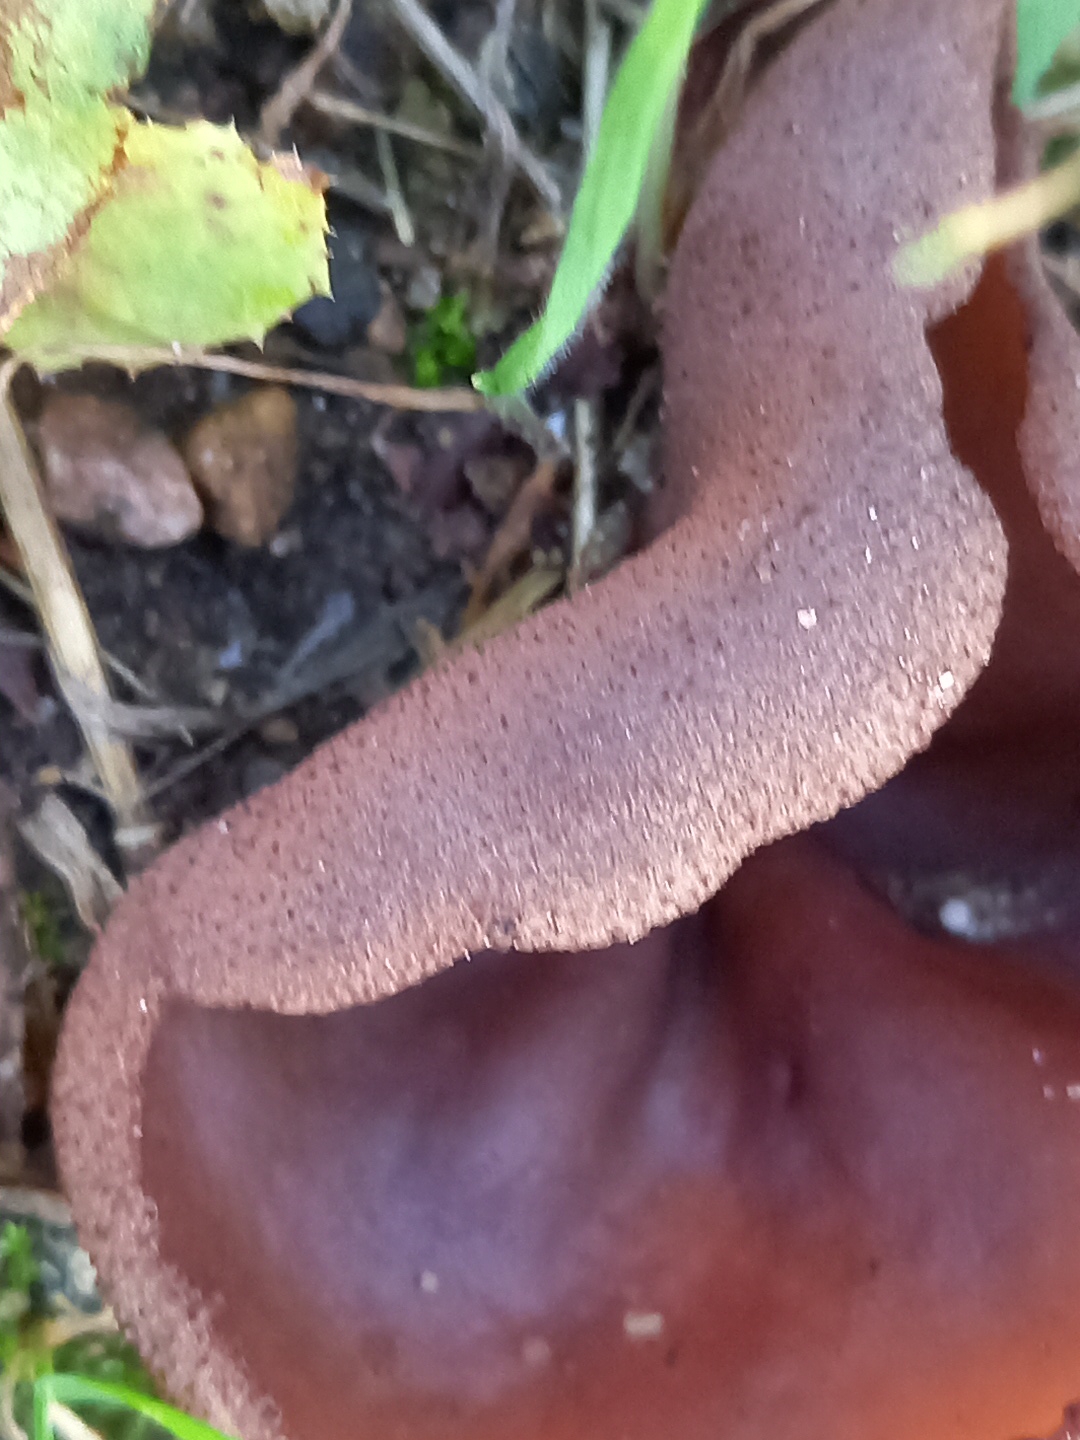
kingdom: Fungi
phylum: Ascomycota
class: Pezizomycetes
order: Pezizales
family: Pezizaceae
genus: Peziza
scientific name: Peziza
